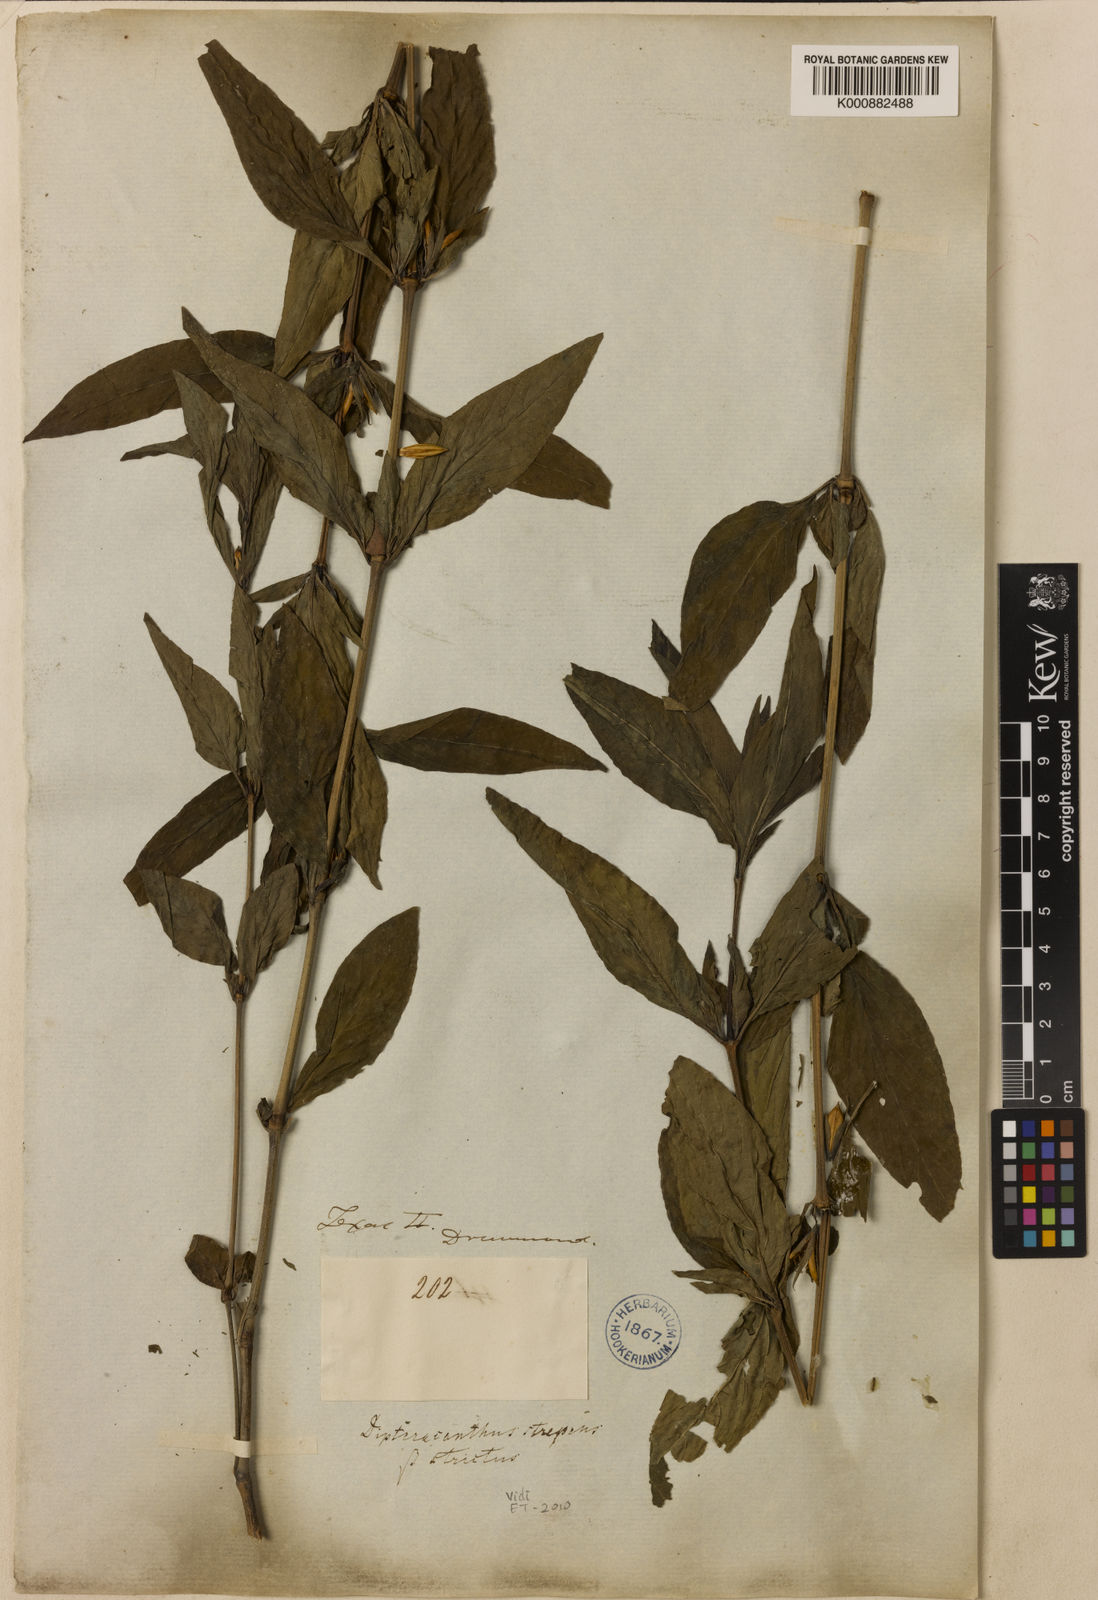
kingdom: Plantae
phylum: Tracheophyta
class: Magnoliopsida
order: Lamiales
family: Acanthaceae
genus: Ruellia
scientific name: Ruellia strepens
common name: Limestone wild petunia
